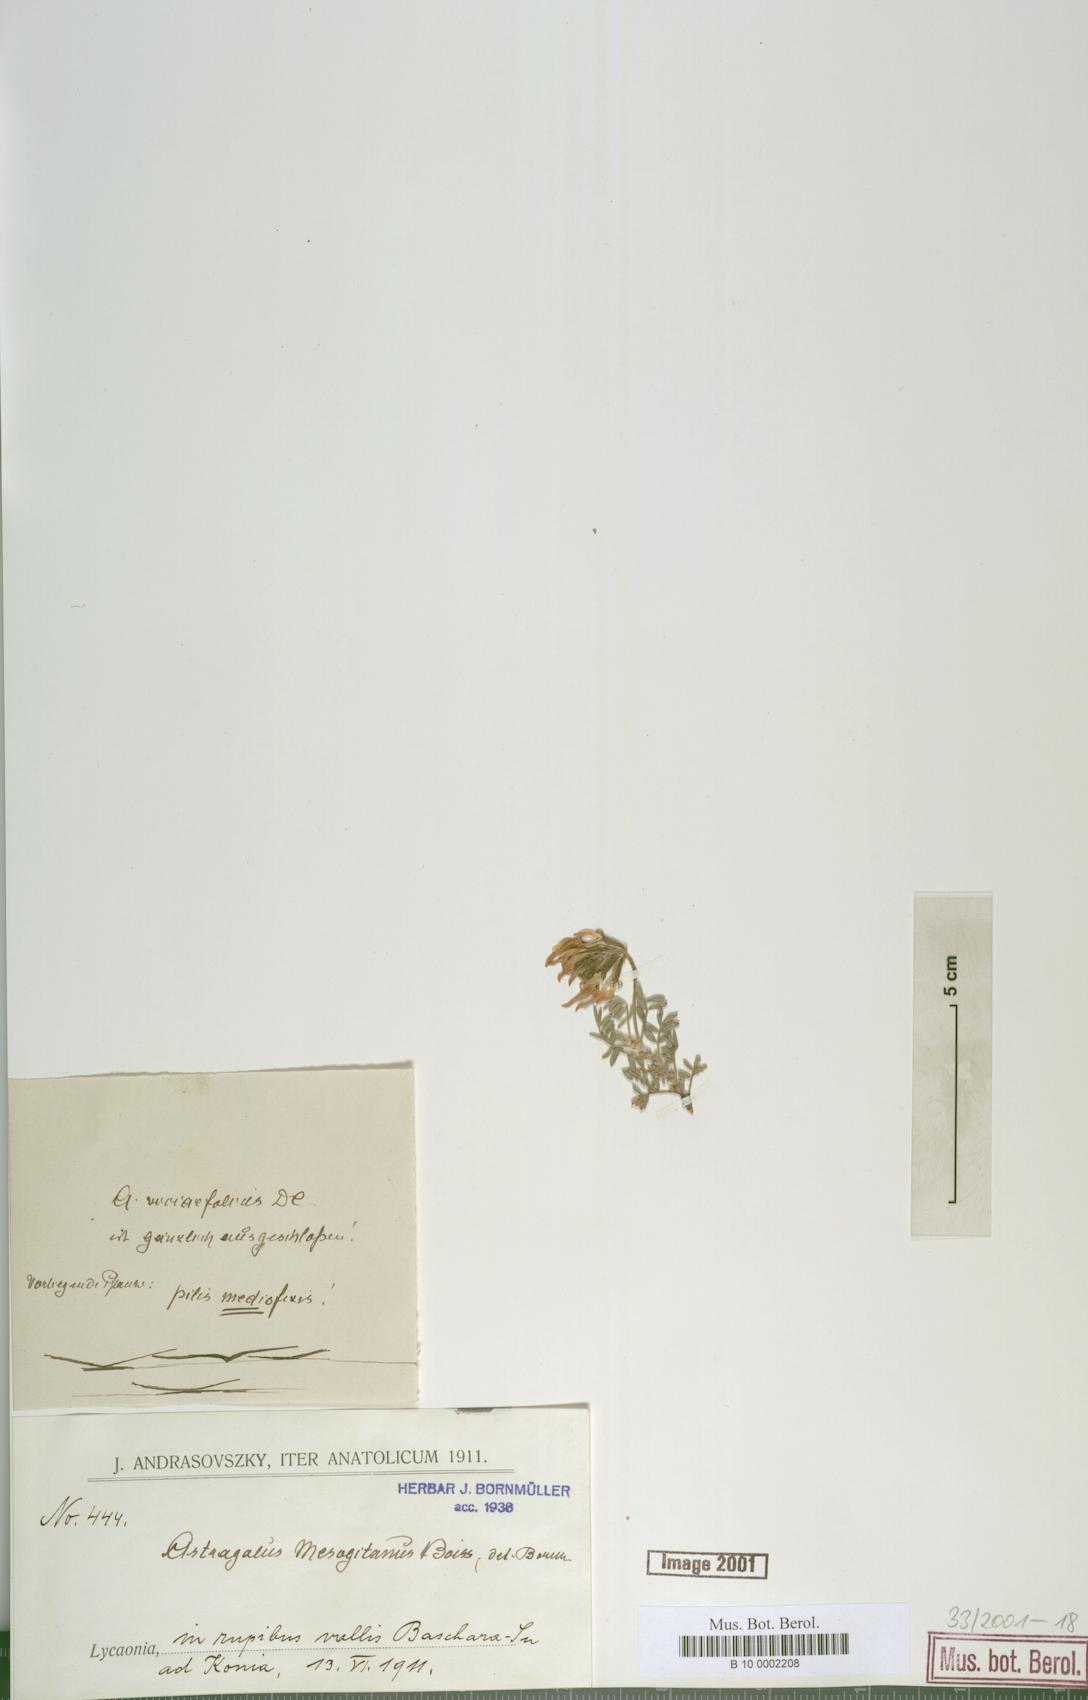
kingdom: Plantae
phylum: Tracheophyta
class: Magnoliopsida
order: Fabales
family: Fabaceae
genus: Astragalus
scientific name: Astragalus mesogitanus
